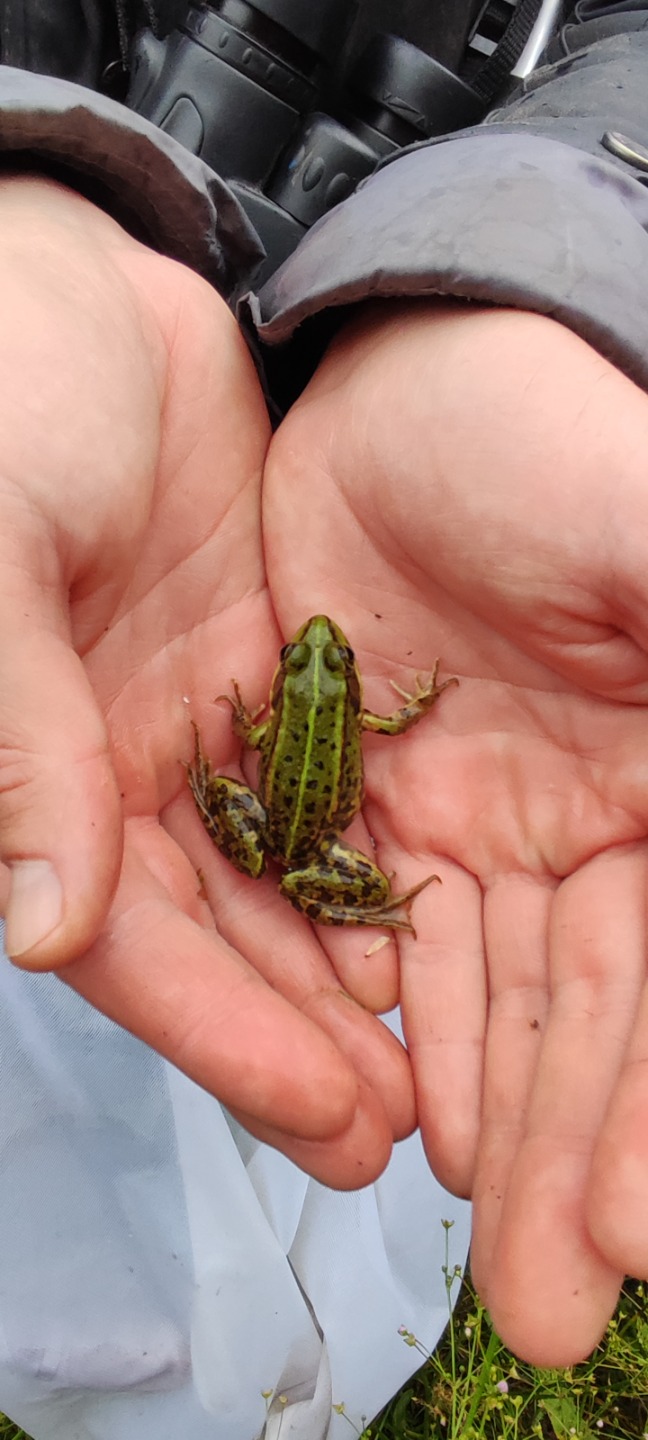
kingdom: Animalia
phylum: Chordata
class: Amphibia
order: Anura
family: Ranidae
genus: Pelophylax
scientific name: Pelophylax lessonae
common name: Grøn frø
